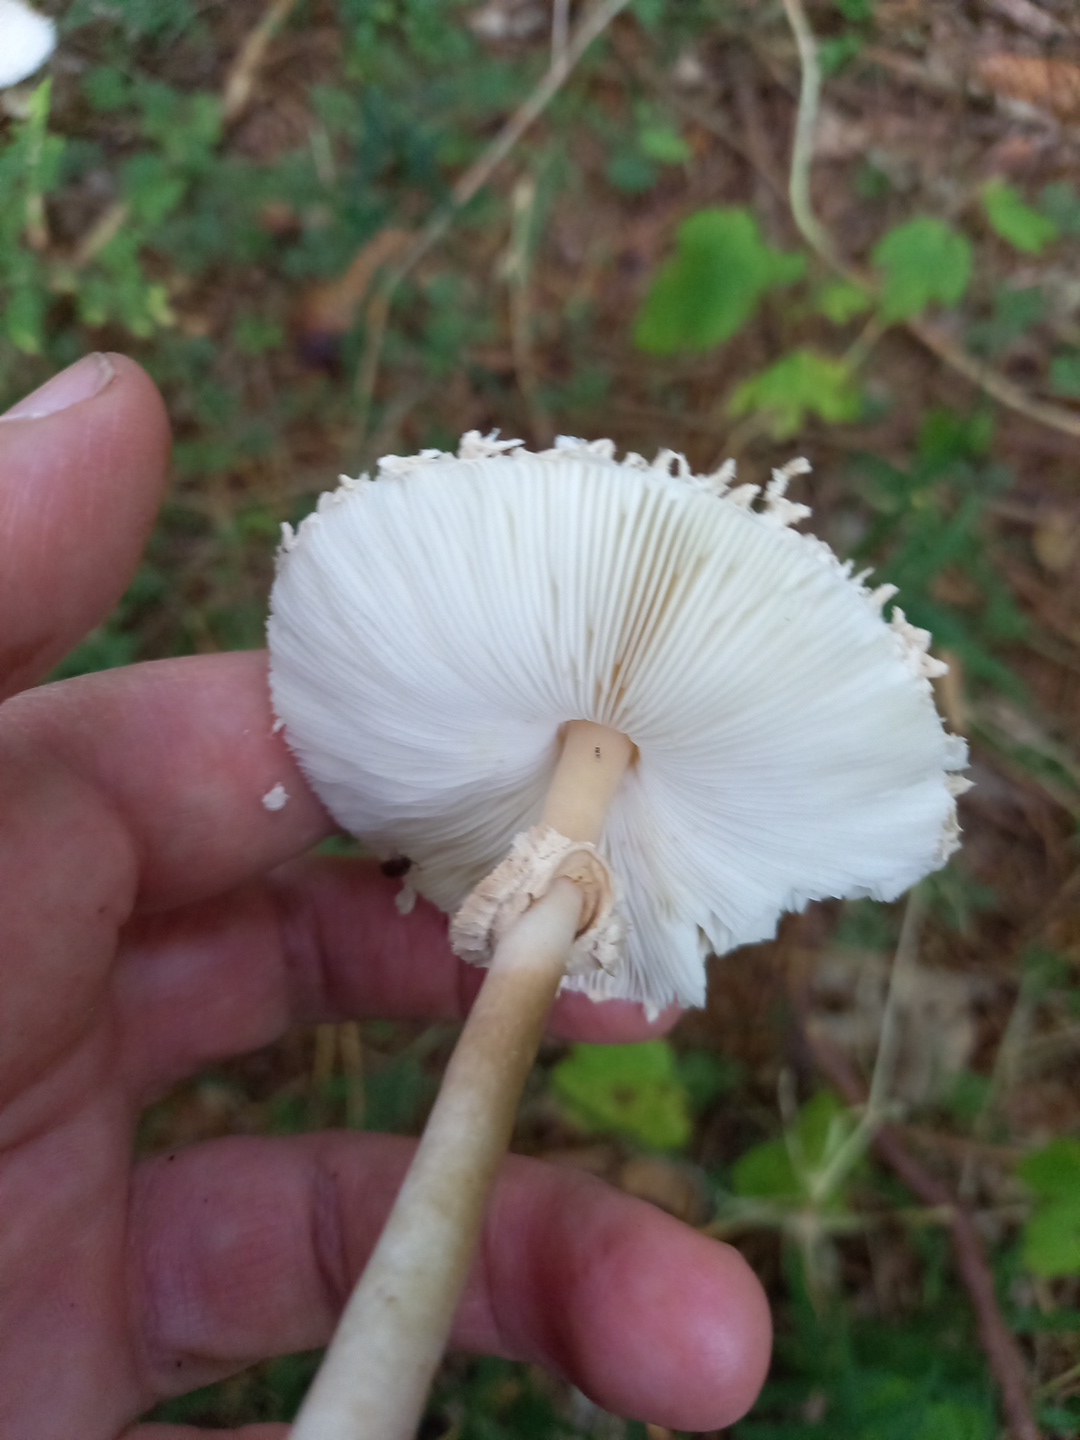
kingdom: Fungi
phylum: Basidiomycota
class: Agaricomycetes
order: Agaricales
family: Agaricaceae
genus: Leucoagaricus
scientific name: Leucoagaricus nympharum
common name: gran-silkehat
